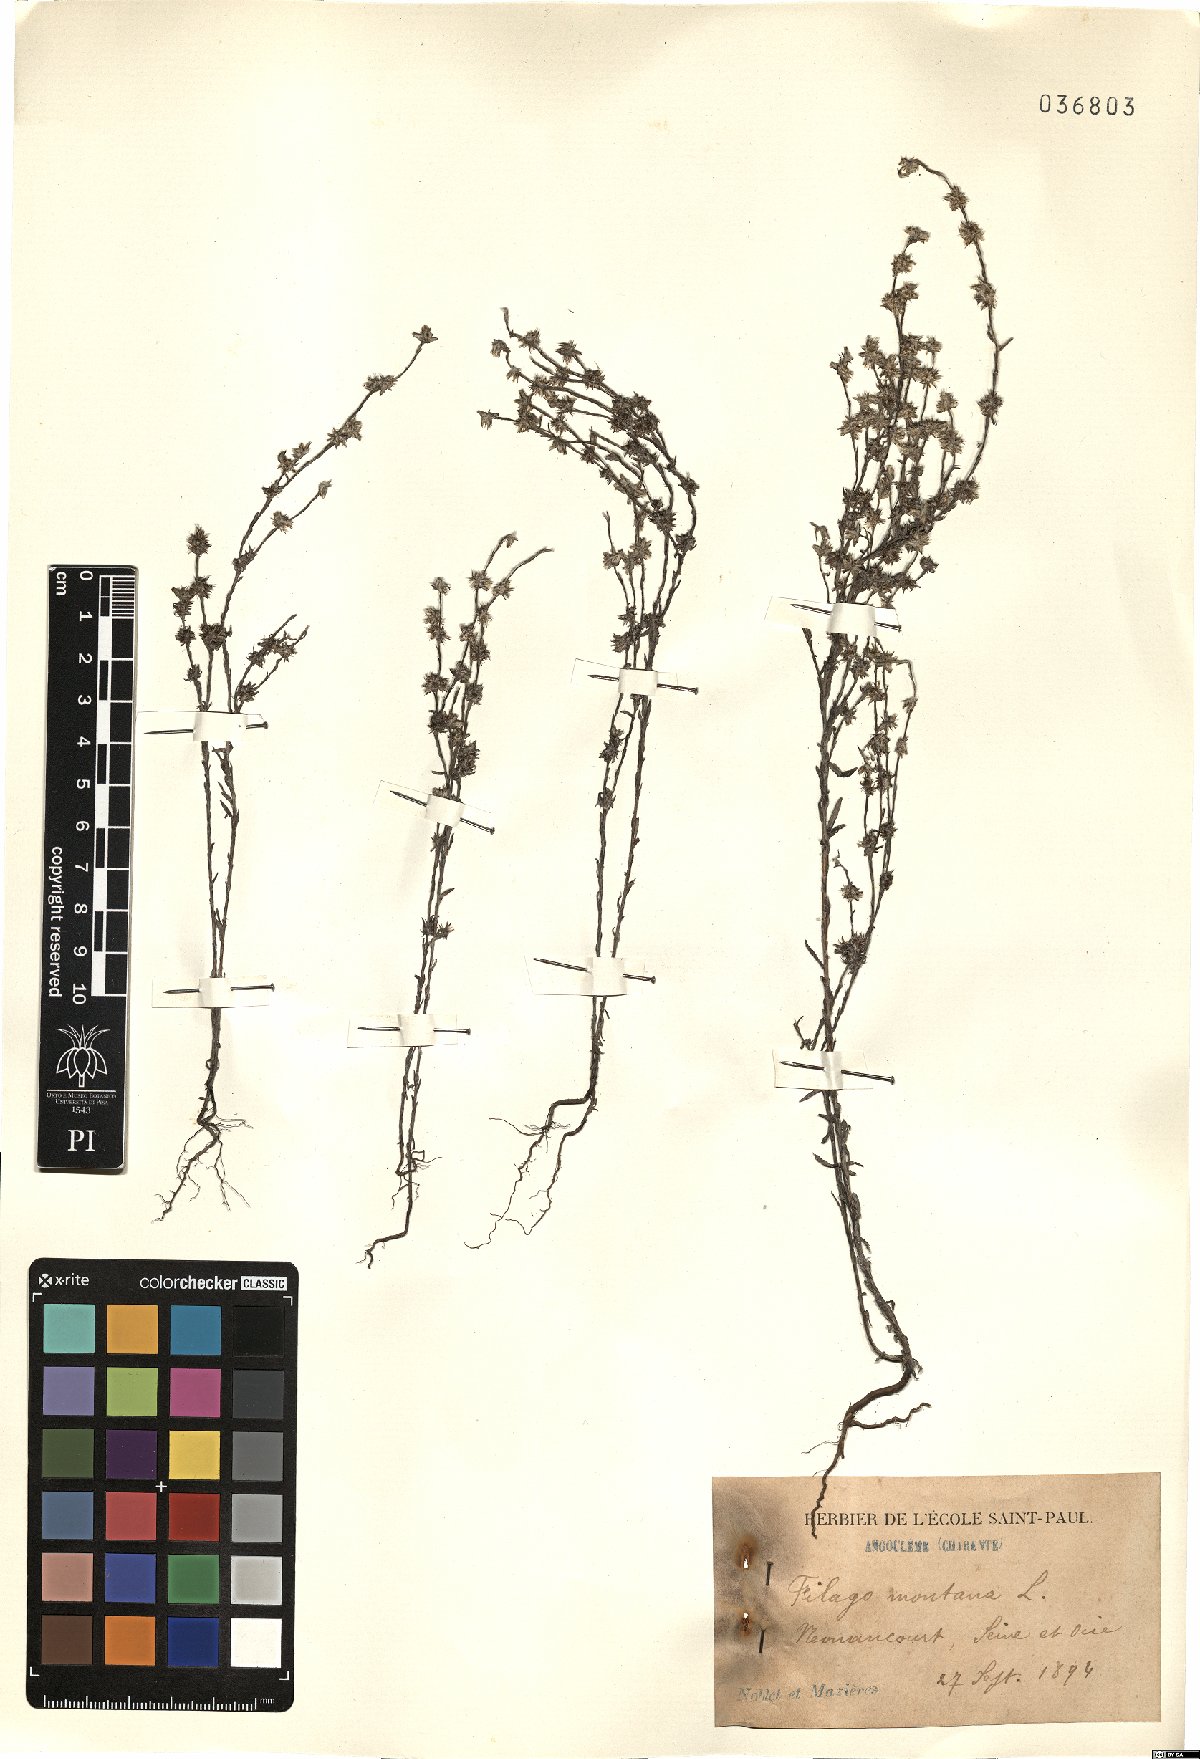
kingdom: Plantae
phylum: Tracheophyta
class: Magnoliopsida
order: Asterales
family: Asteraceae
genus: Filago
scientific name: Filago arvensis
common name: Field cudweed
